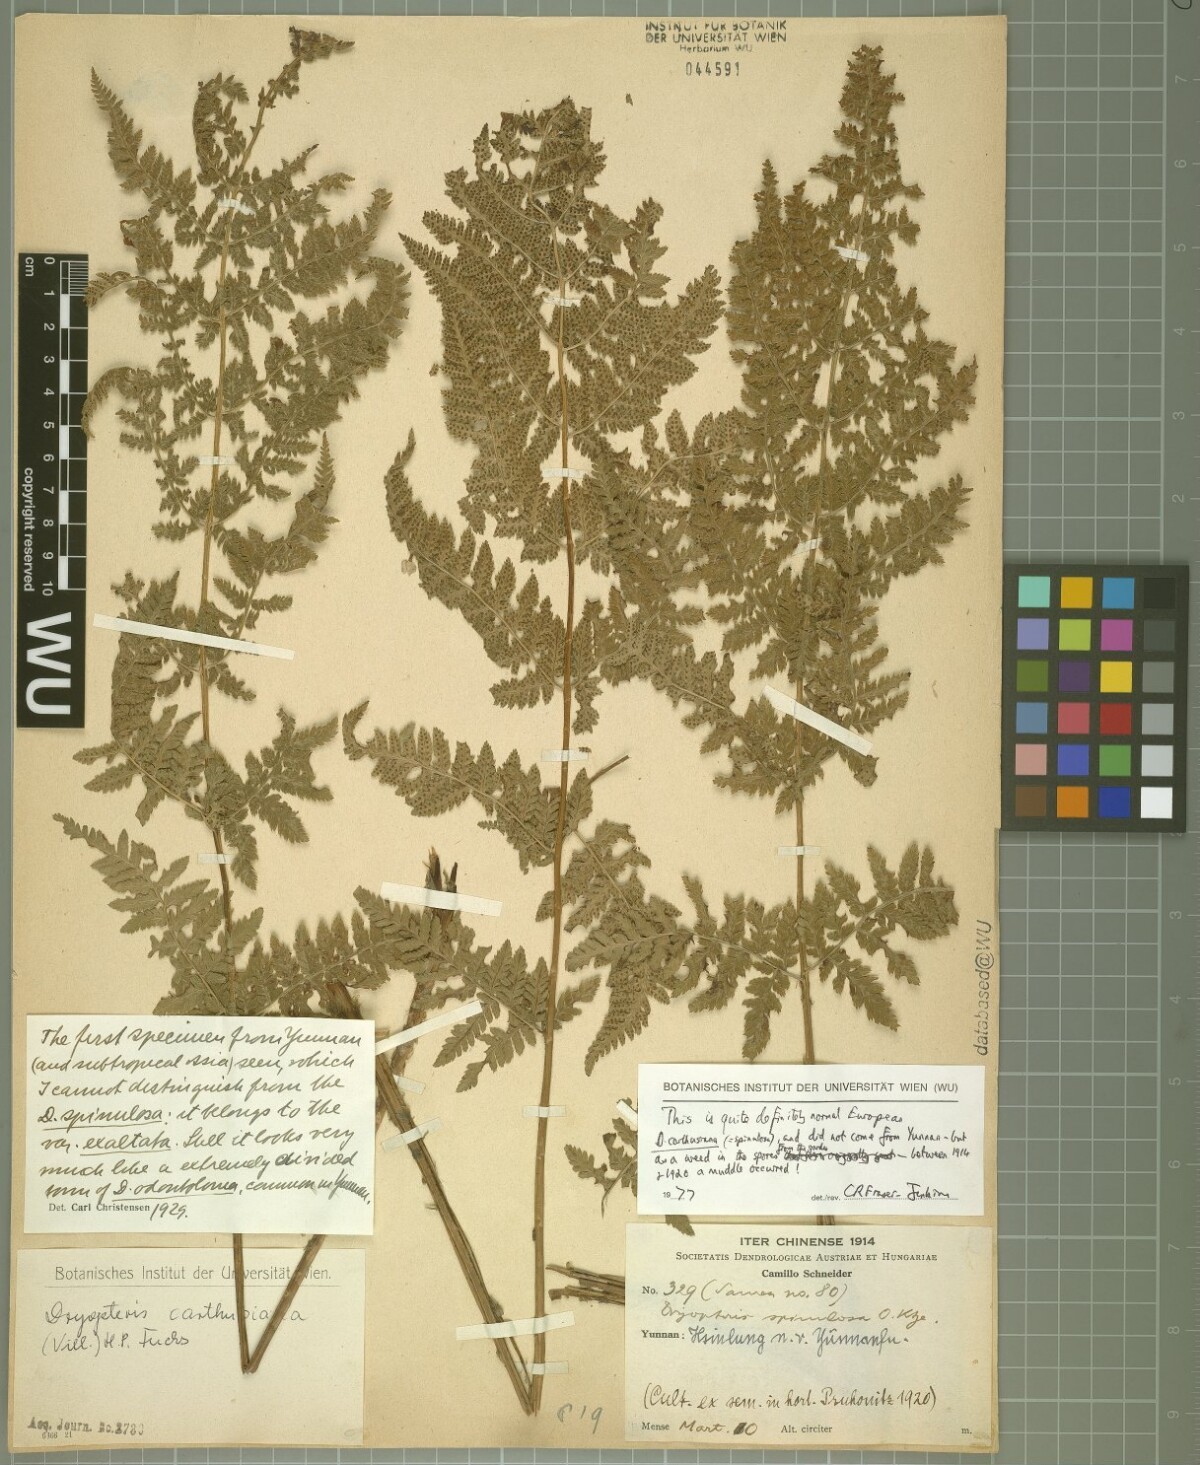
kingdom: Plantae
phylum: Tracheophyta
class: Polypodiopsida
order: Polypodiales
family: Dryopteridaceae
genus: Dryopteris
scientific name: Dryopteris carthusiana
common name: Narrow buckler-fern
